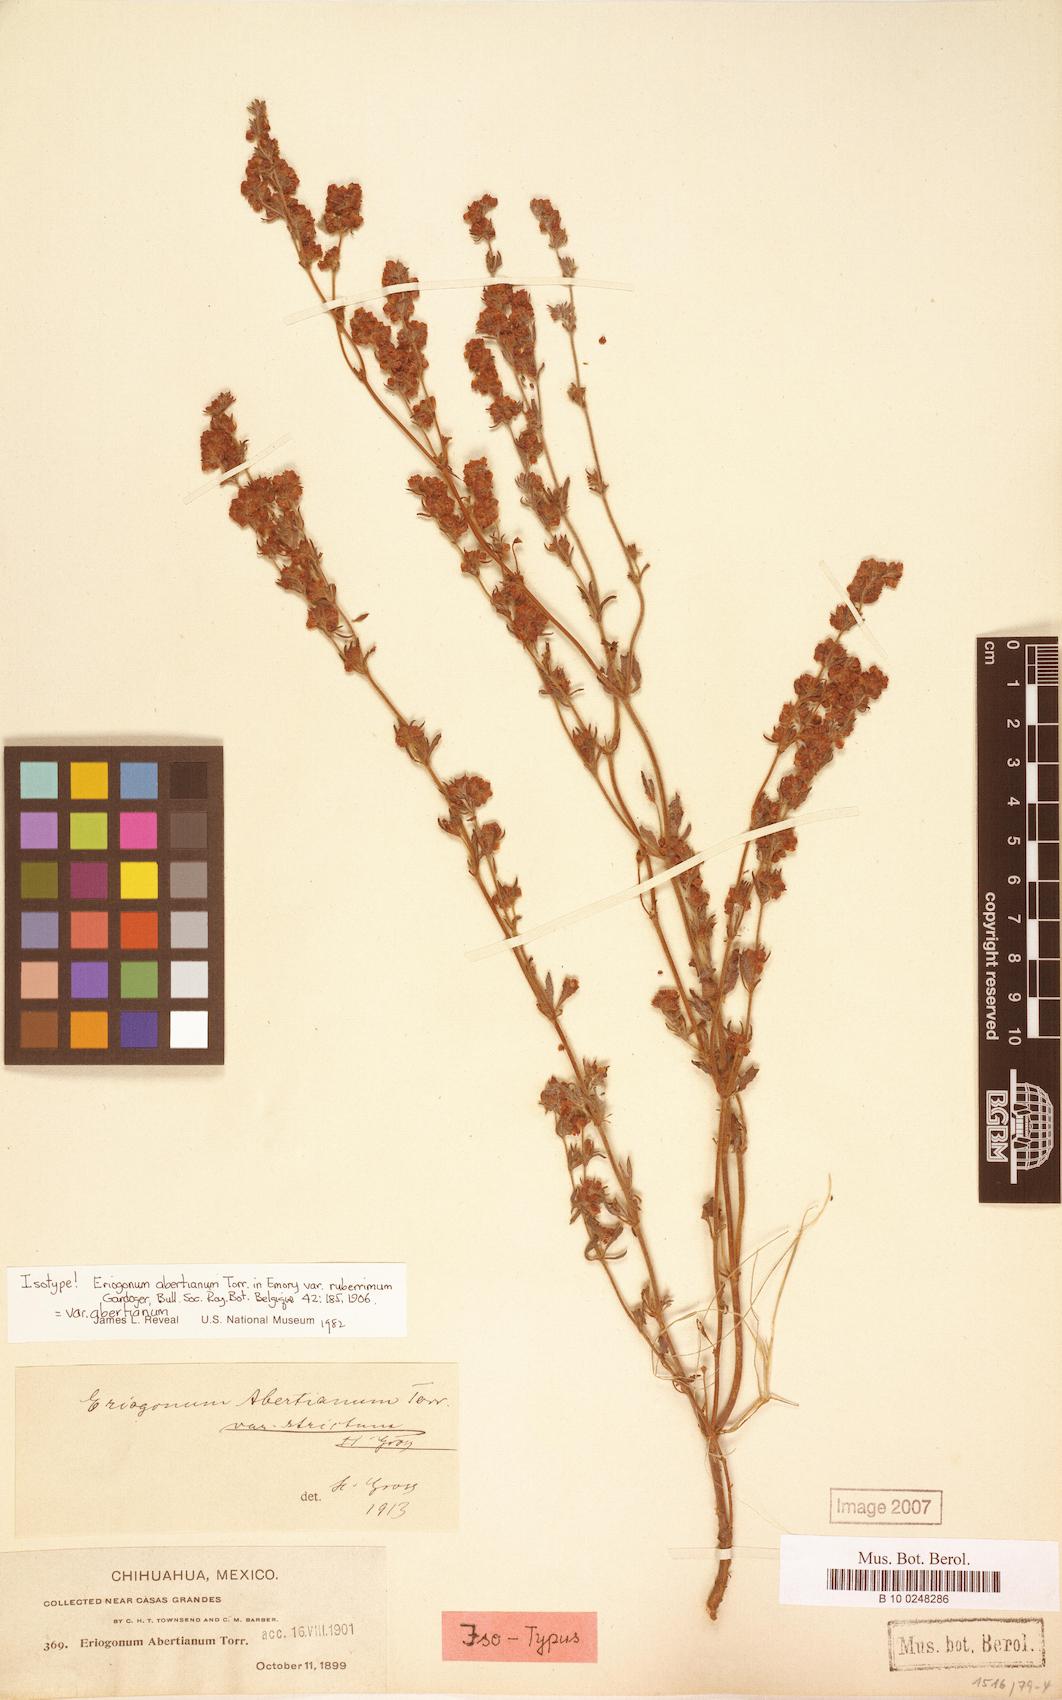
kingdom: Plantae
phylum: Tracheophyta
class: Magnoliopsida
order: Caryophyllales
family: Polygonaceae
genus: Eriogonum
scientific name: Eriogonum abertianum
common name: Abert's wild buckwheat
